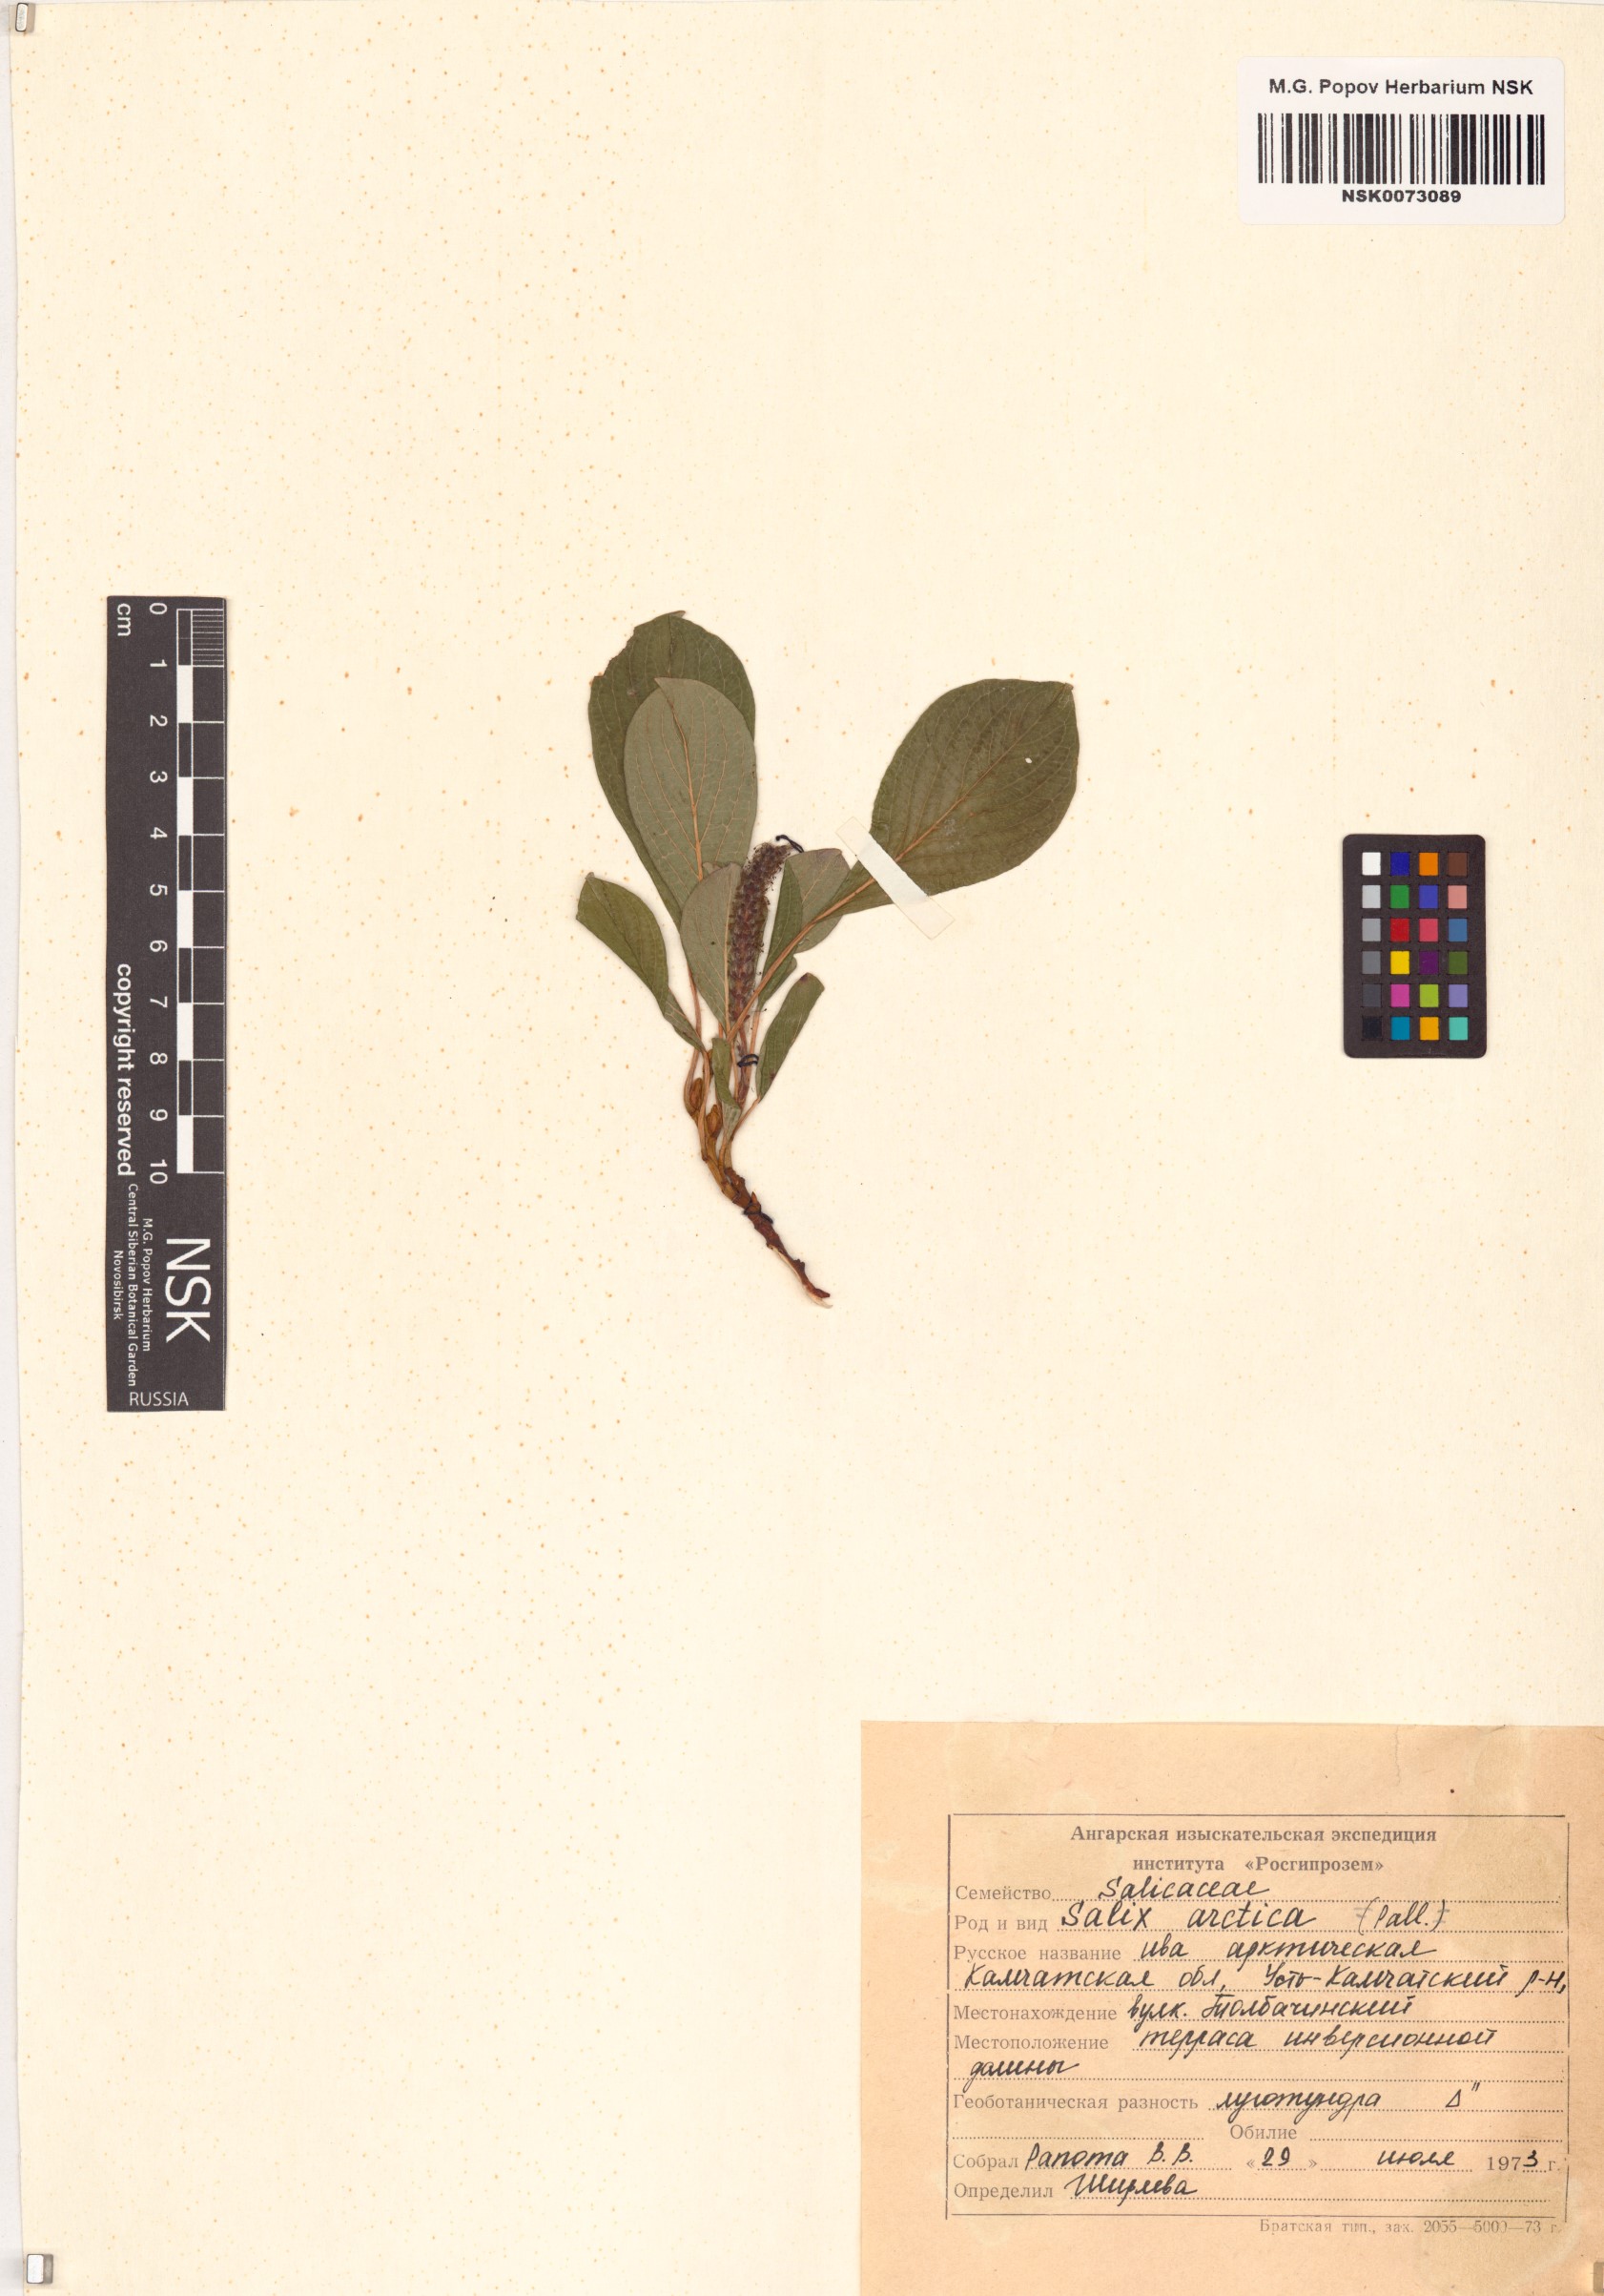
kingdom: Plantae
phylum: Tracheophyta
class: Magnoliopsida
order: Malpighiales
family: Salicaceae
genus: Salix
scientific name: Salix arctica
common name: Arctic willow
